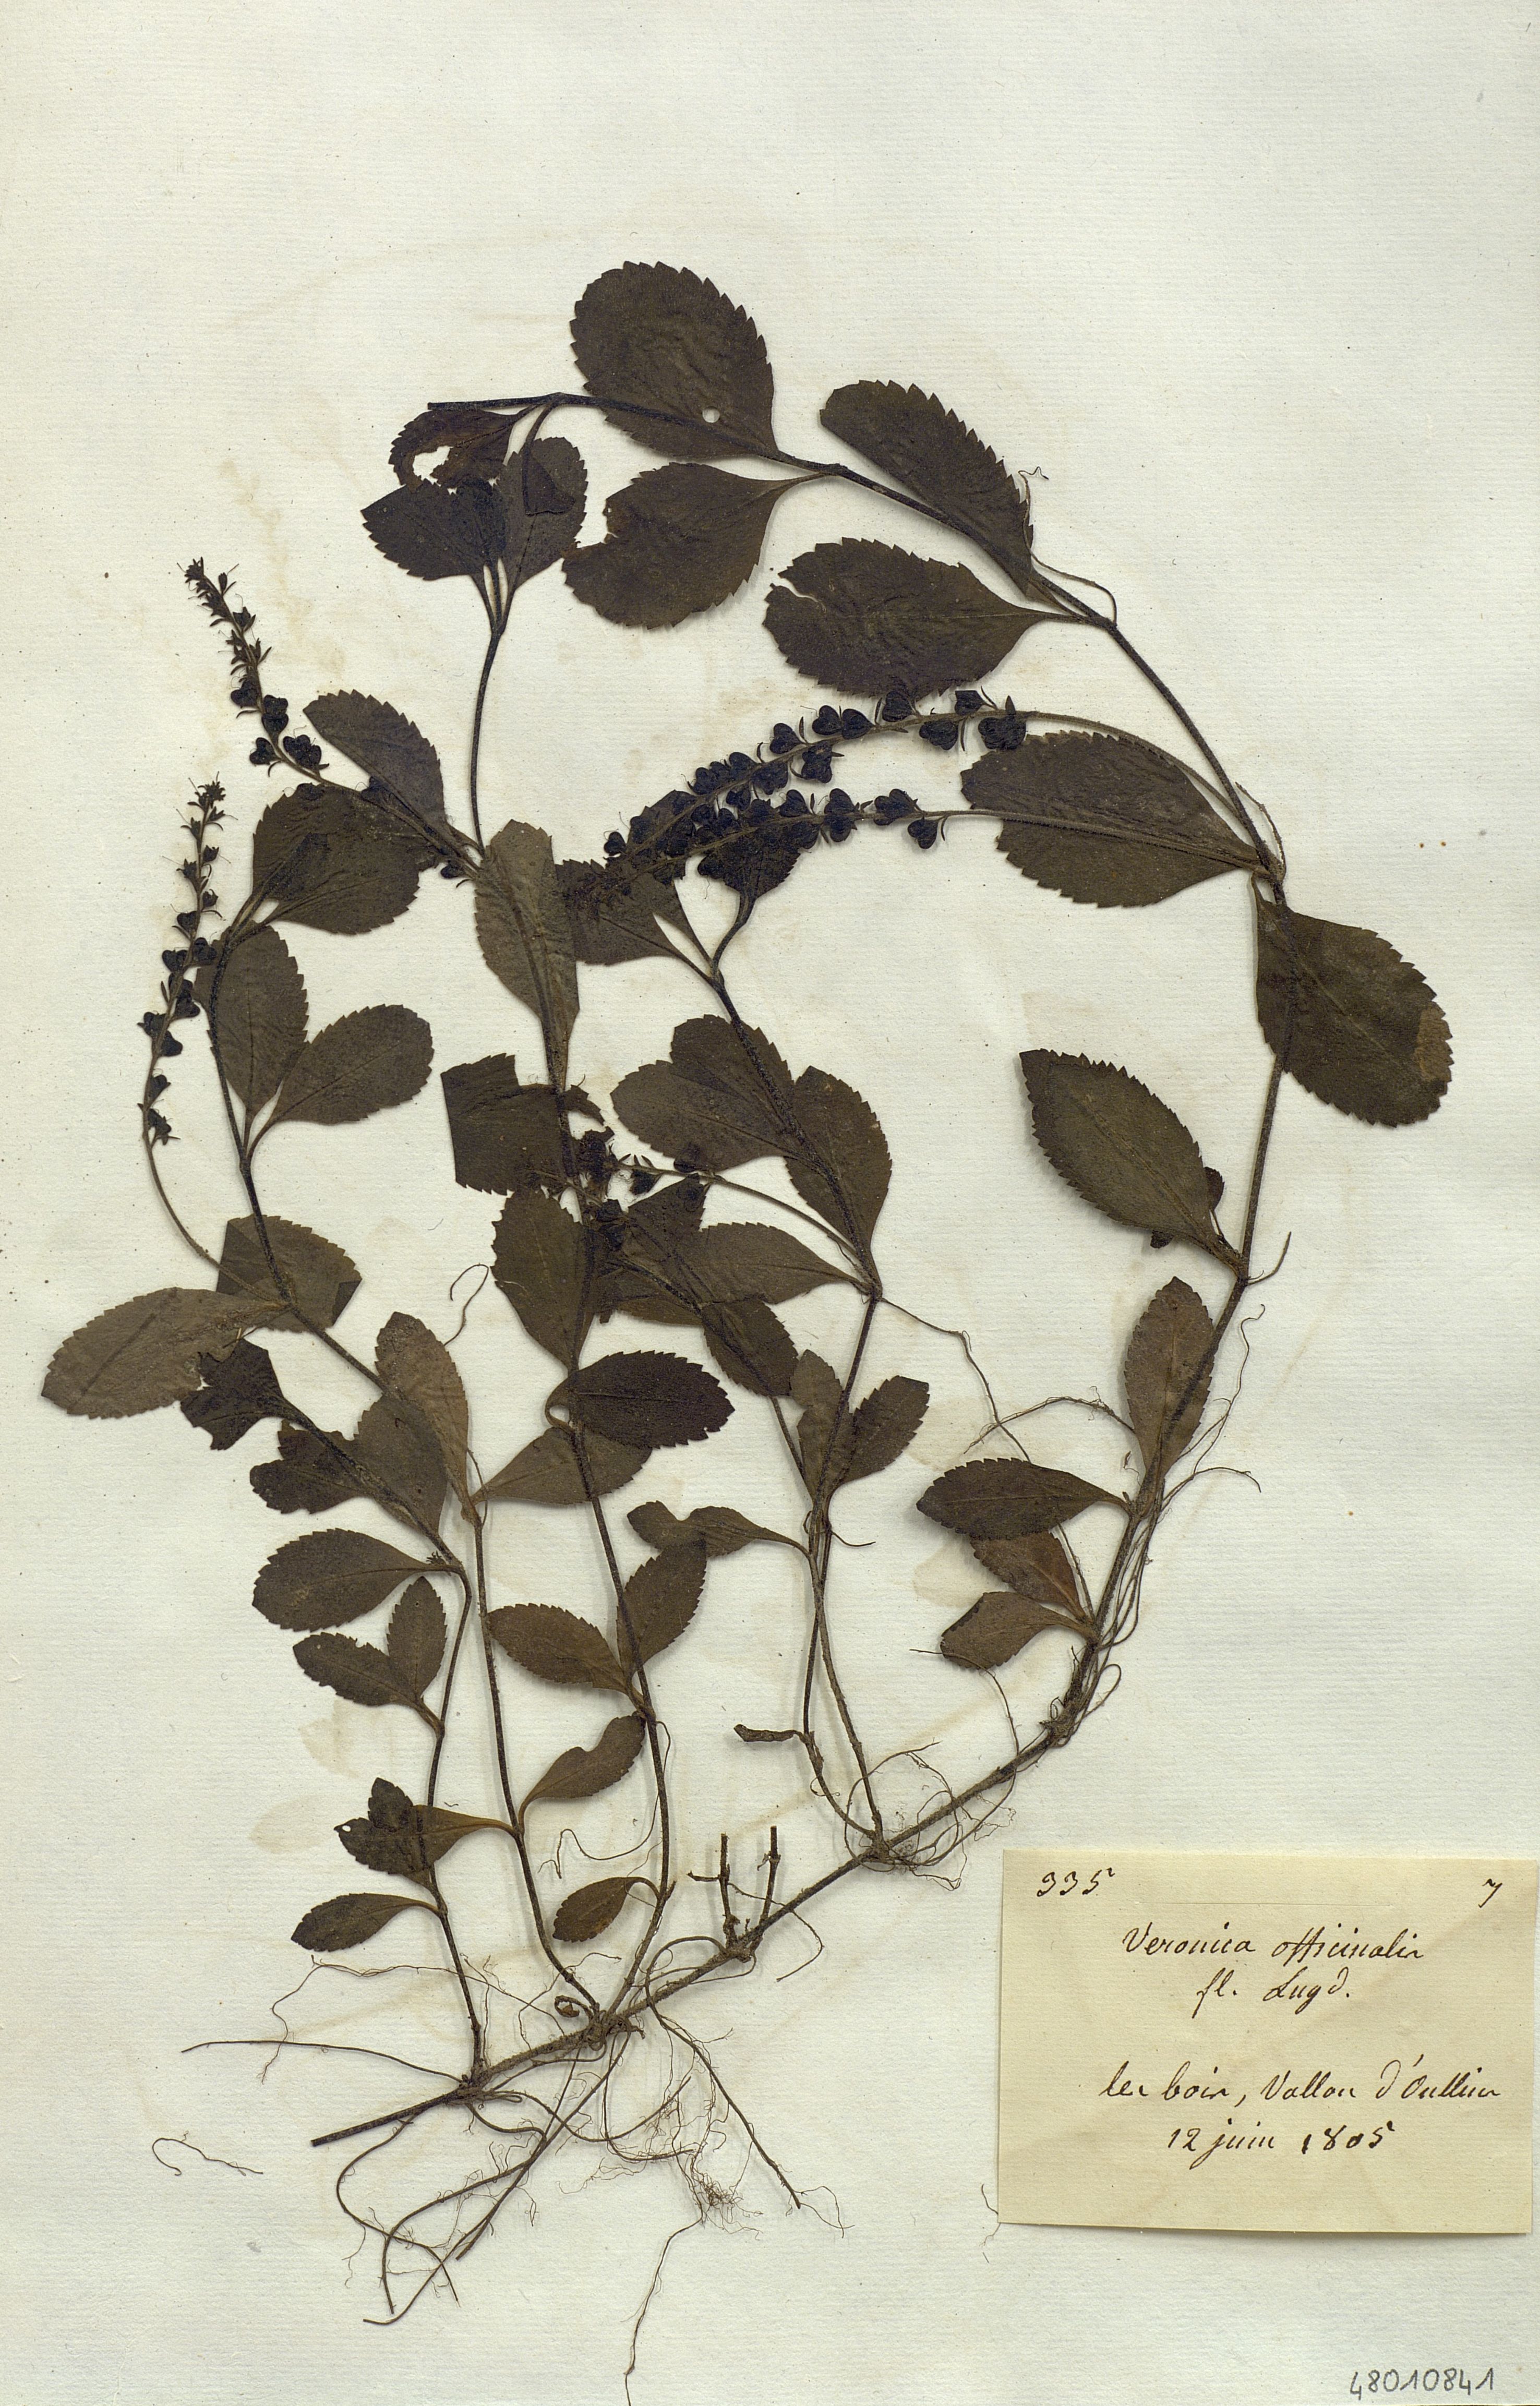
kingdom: Plantae
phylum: Tracheophyta
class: Magnoliopsida
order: Lamiales
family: Plantaginaceae
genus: Veronica
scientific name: Veronica officinalis
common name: Common speedwell
